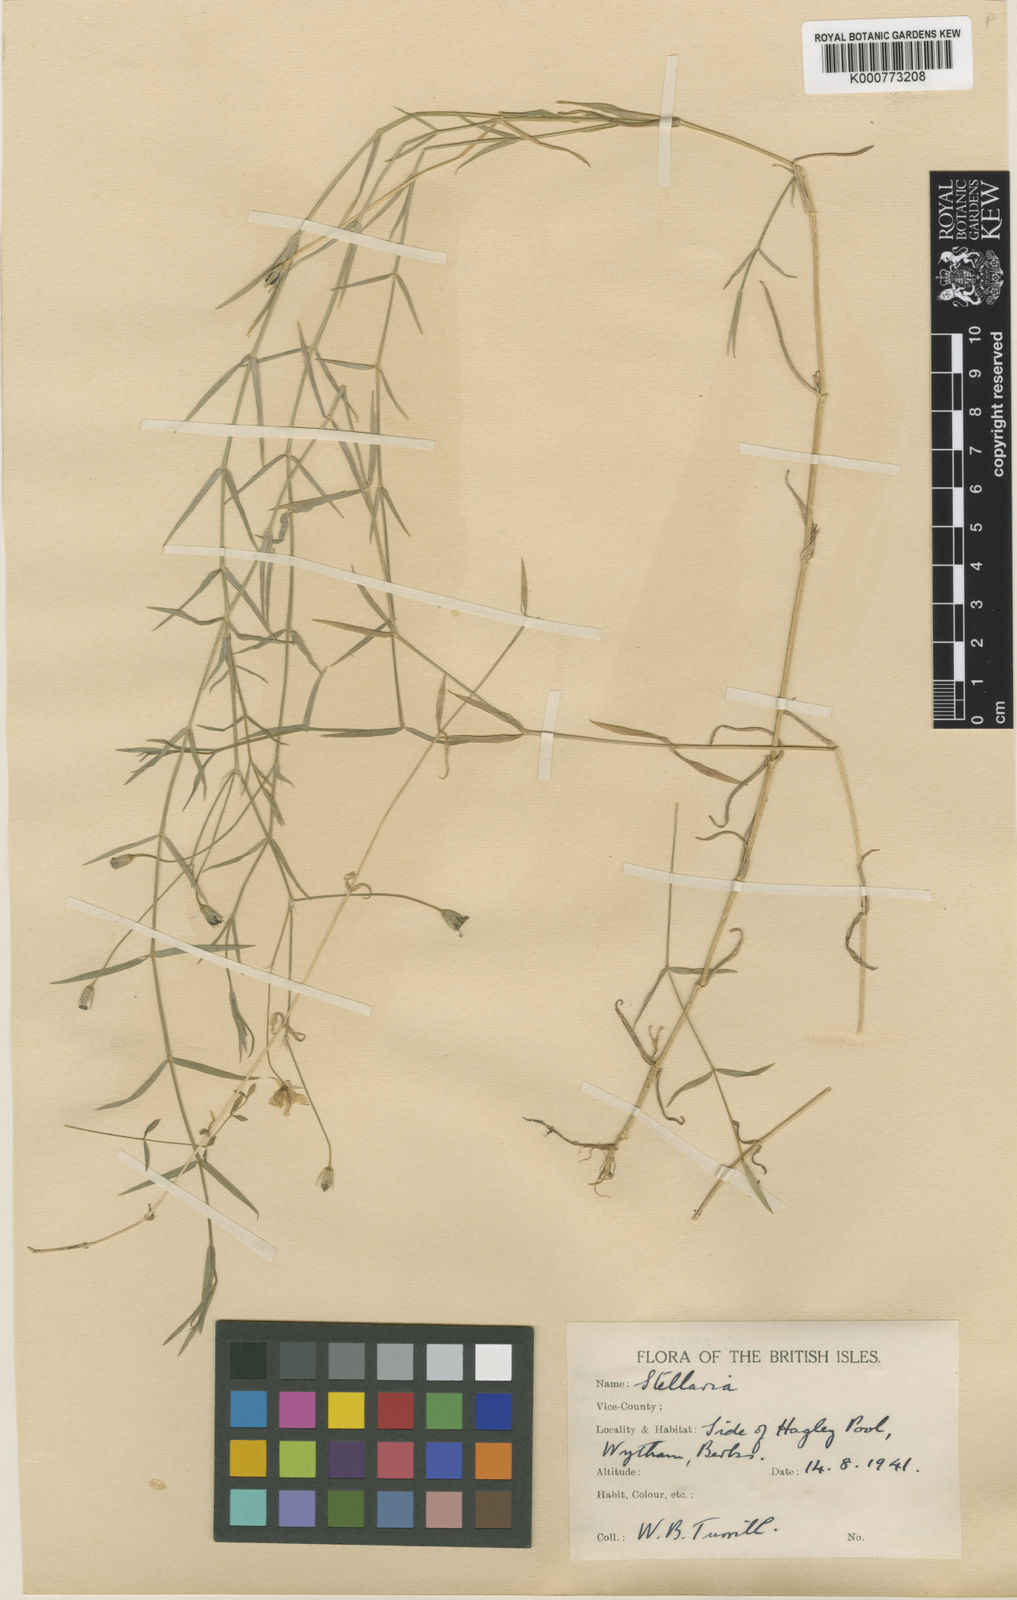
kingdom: Plantae
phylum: Tracheophyta
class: Magnoliopsida
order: Caryophyllales
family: Caryophyllaceae
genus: Stellaria
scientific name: Stellaria
